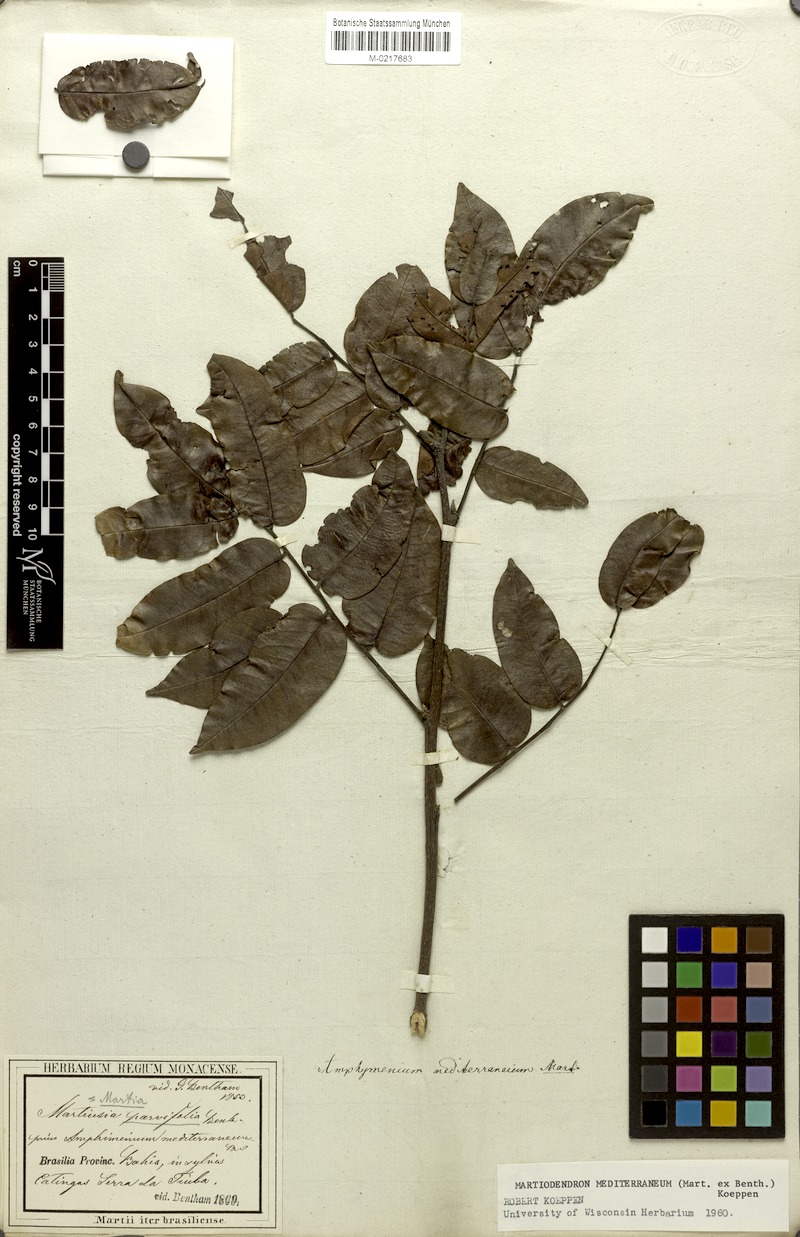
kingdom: Plantae
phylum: Tracheophyta
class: Magnoliopsida
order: Fabales
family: Fabaceae
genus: Martiodendron
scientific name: Martiodendron mediterraneum
